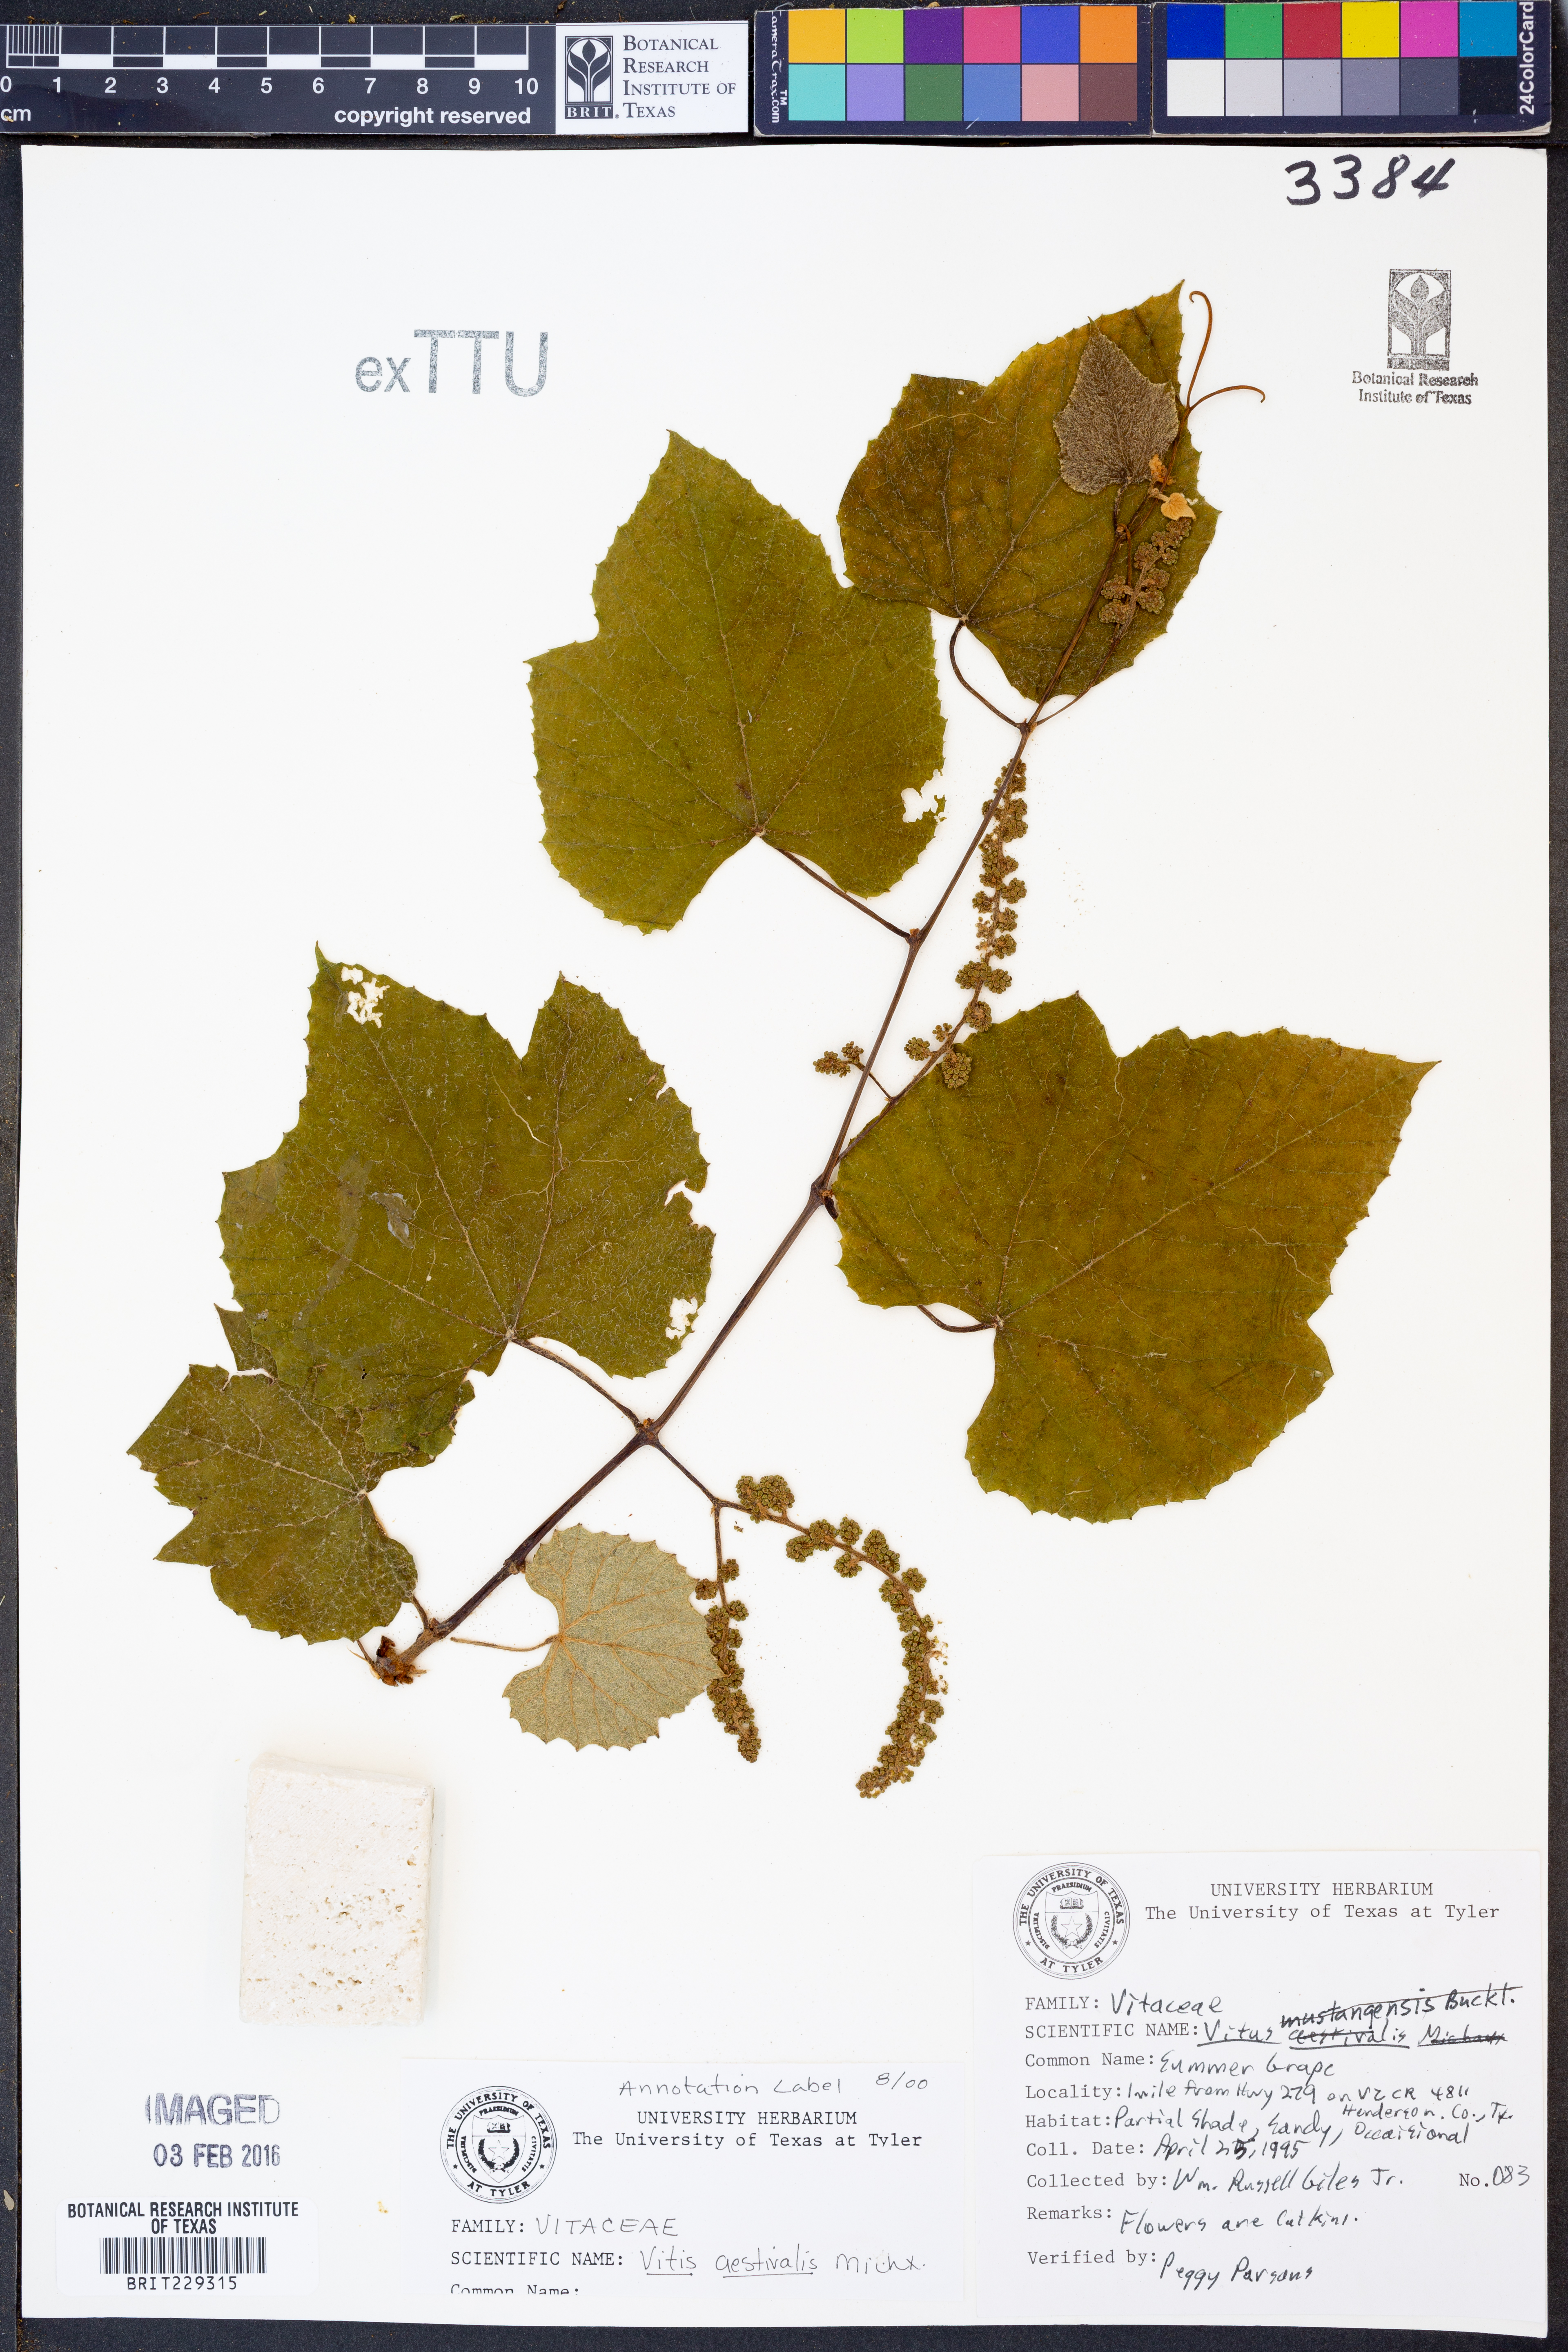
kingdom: Plantae
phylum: Tracheophyta
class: Magnoliopsida
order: Vitales
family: Vitaceae
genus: Vitis
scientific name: Vitis aestivalis
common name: Pigeon grape
